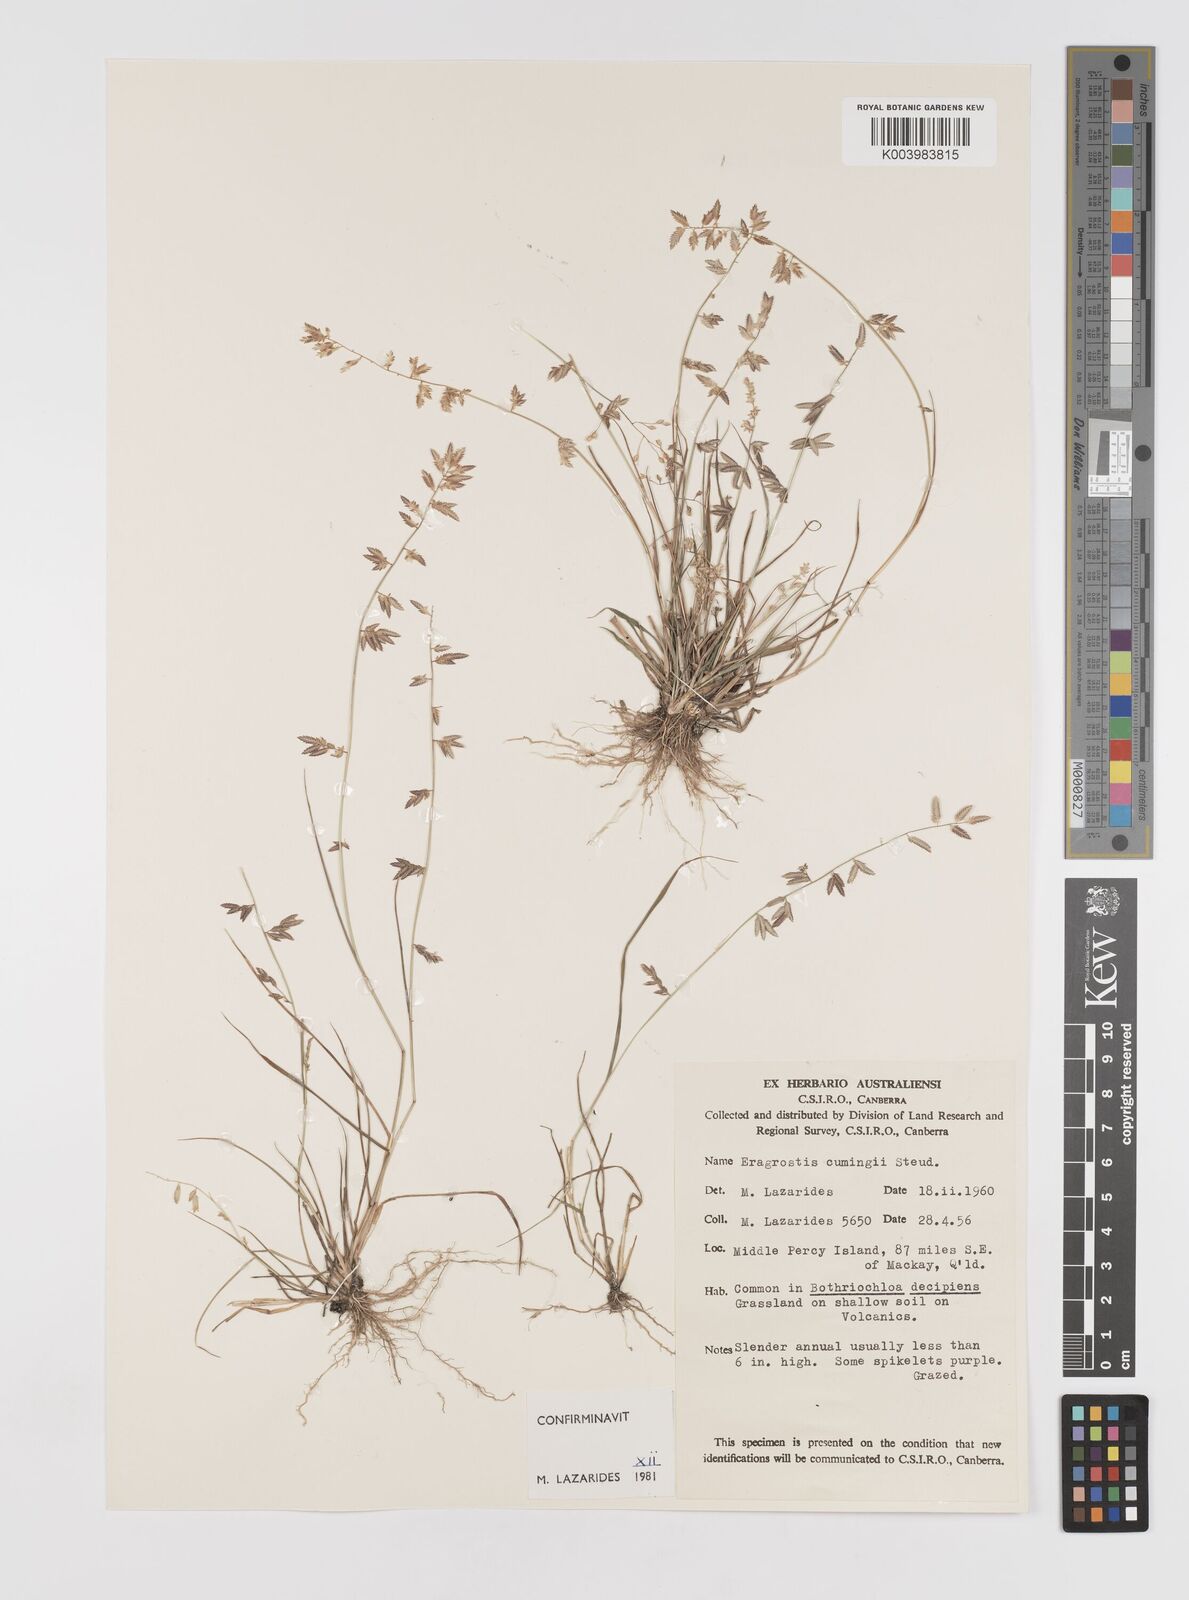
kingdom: Plantae
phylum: Tracheophyta
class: Liliopsida
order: Poales
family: Poaceae
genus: Eragrostis
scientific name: Eragrostis cumingii
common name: Cuming's lovegrass
